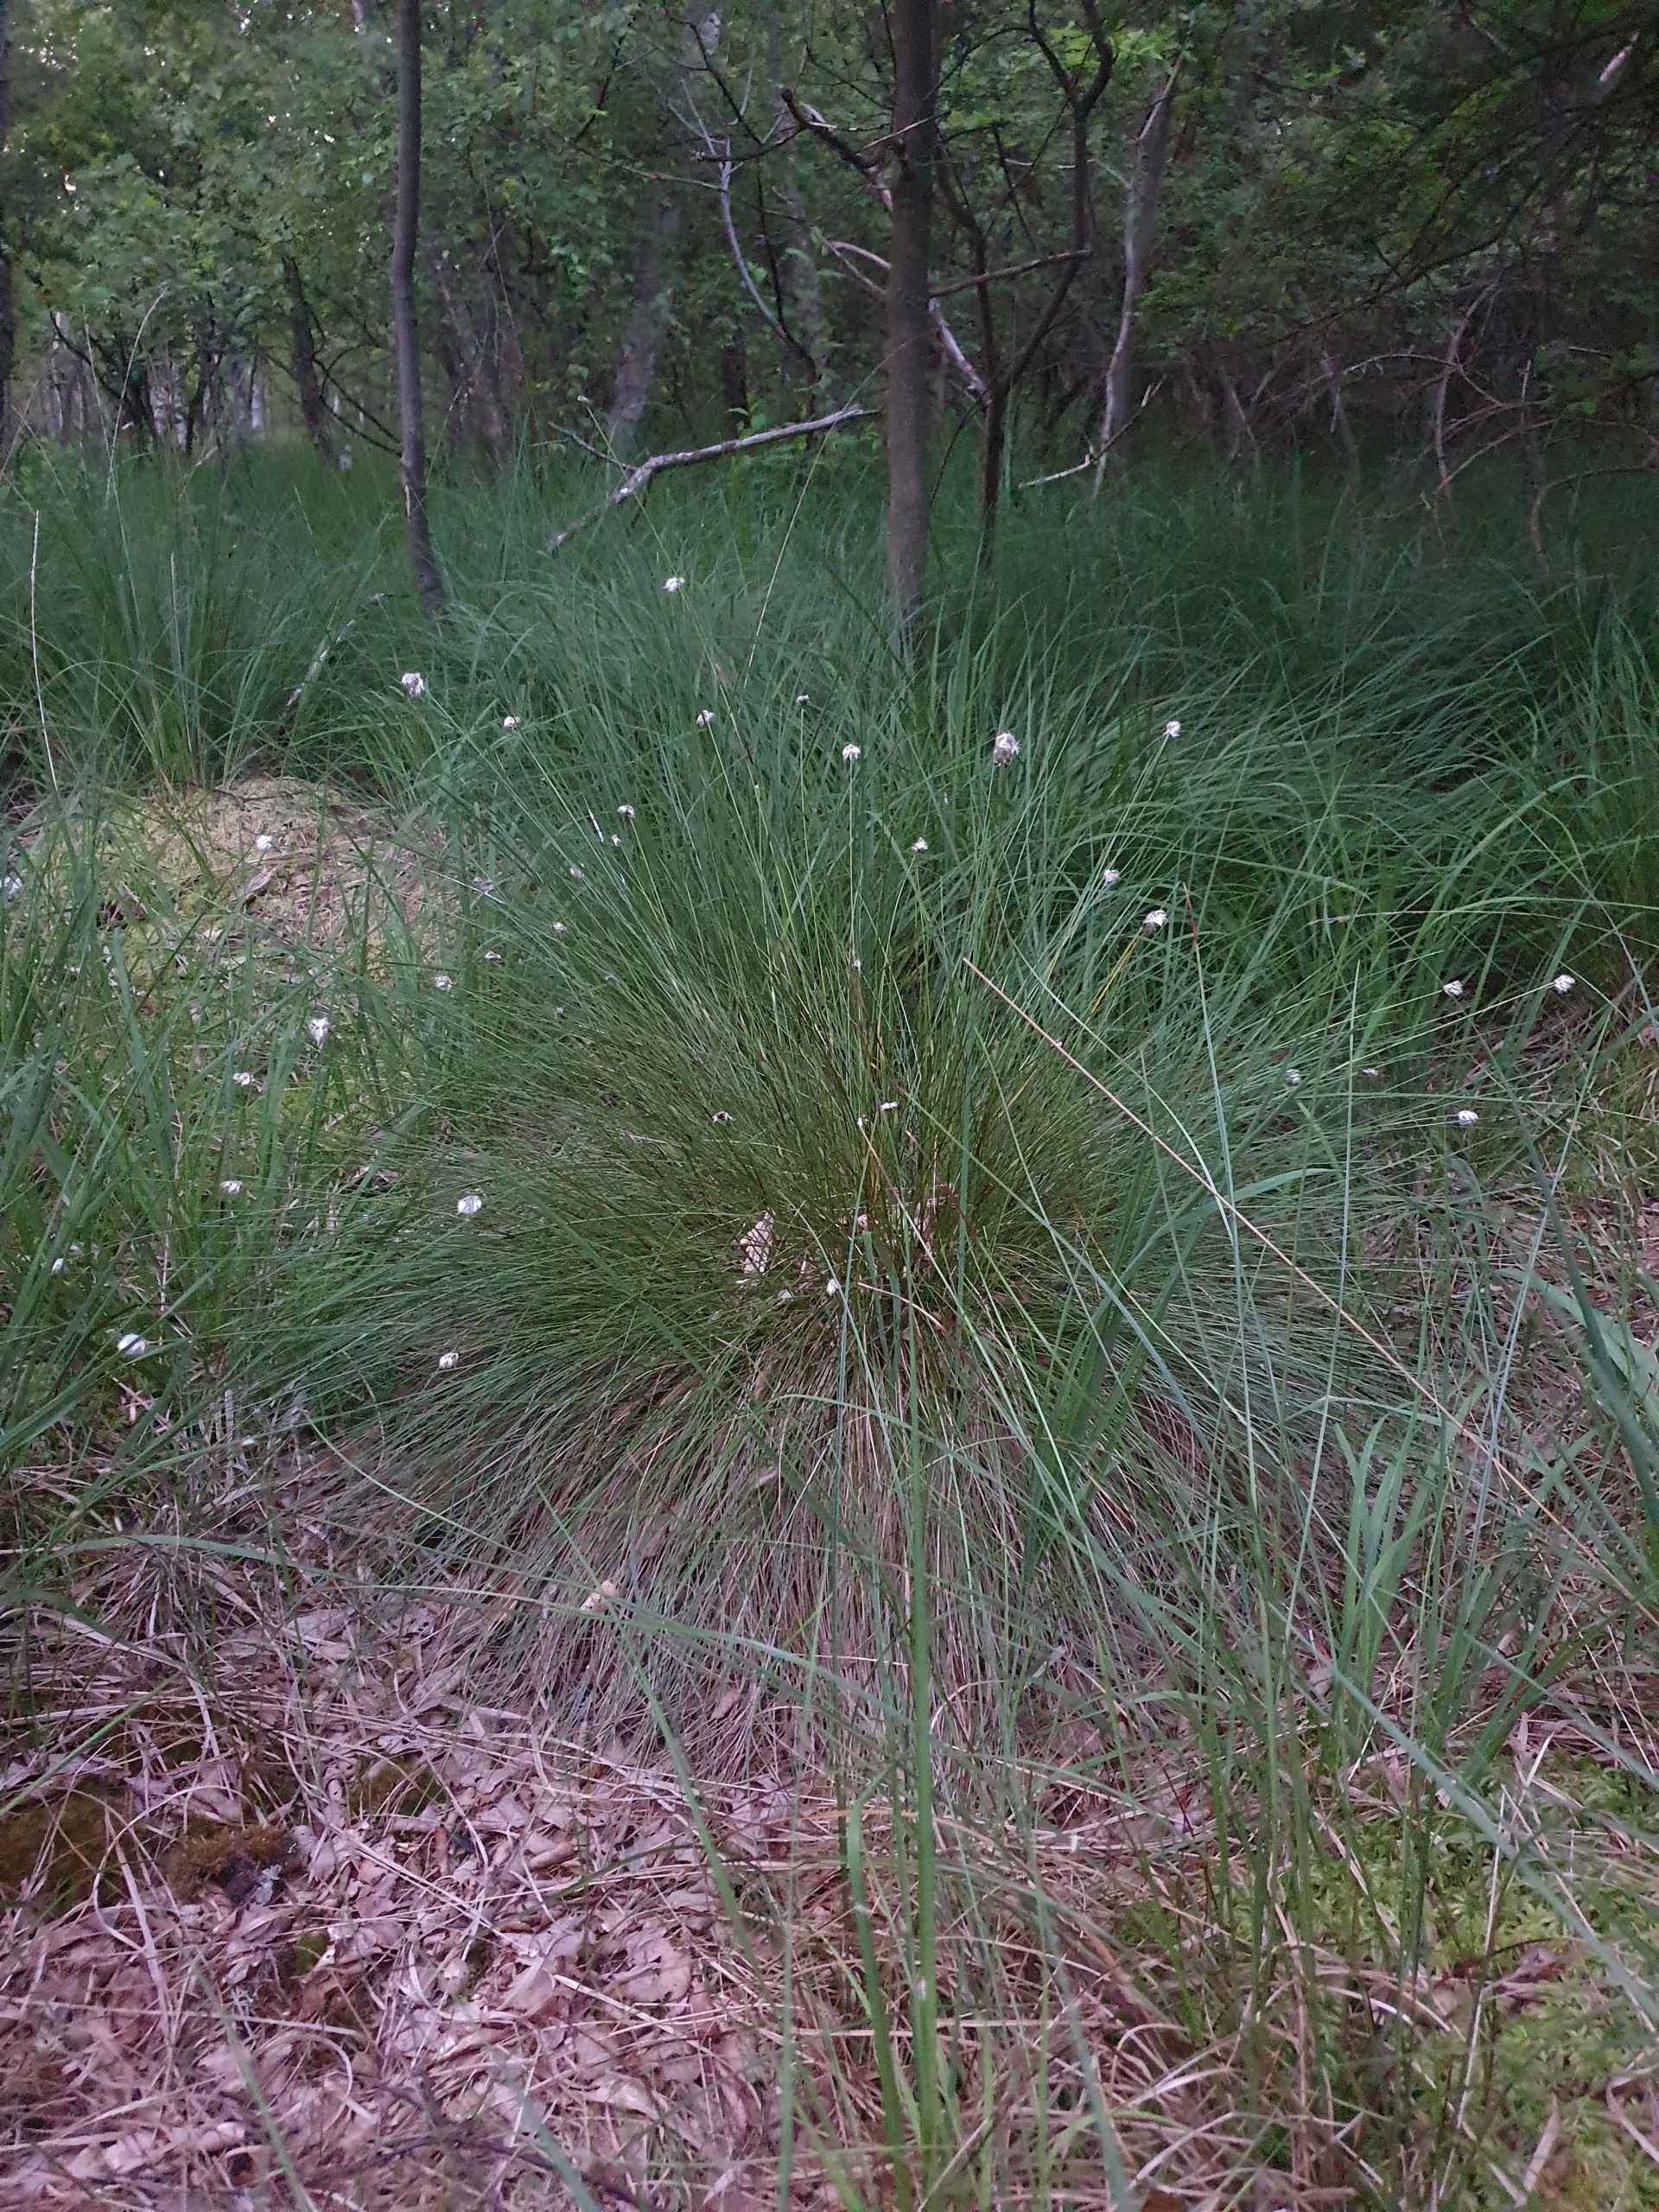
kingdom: Plantae
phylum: Tracheophyta
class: Liliopsida
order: Poales
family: Cyperaceae
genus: Eriophorum
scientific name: Eriophorum vaginatum
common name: Tue-kæruld
